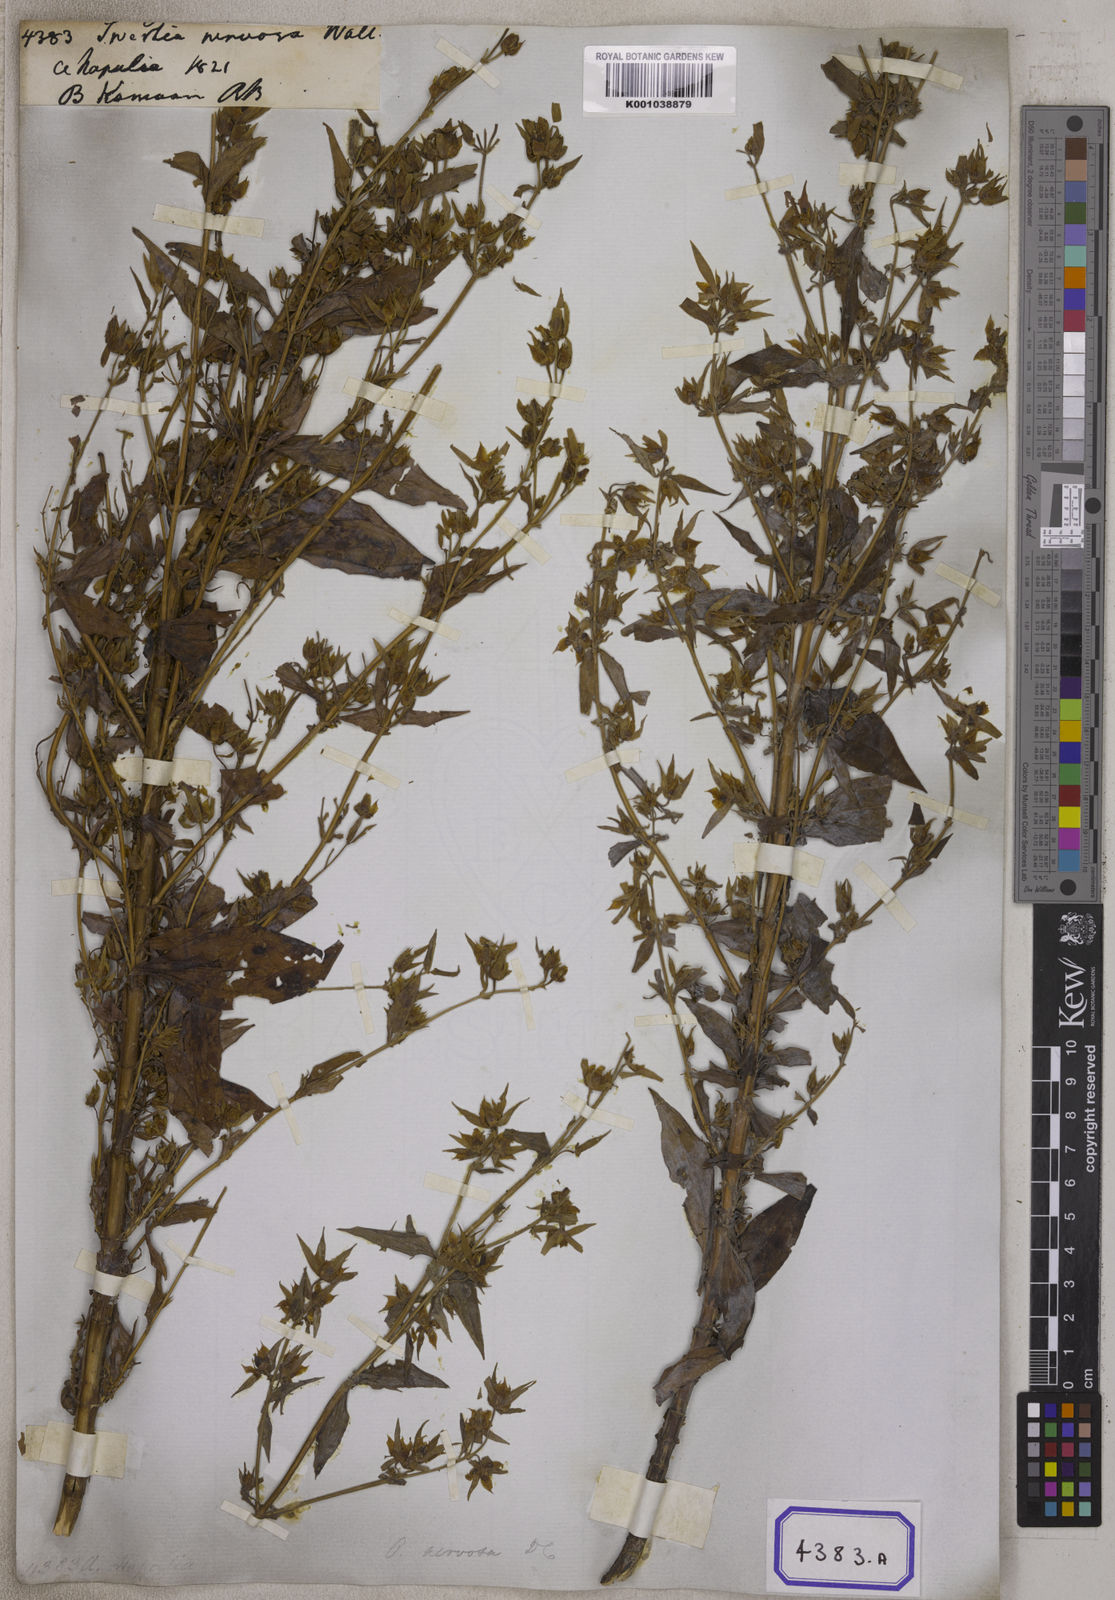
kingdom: Plantae
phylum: Tracheophyta
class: Magnoliopsida
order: Gentianales
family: Gentianaceae
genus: Swertia
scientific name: Swertia
